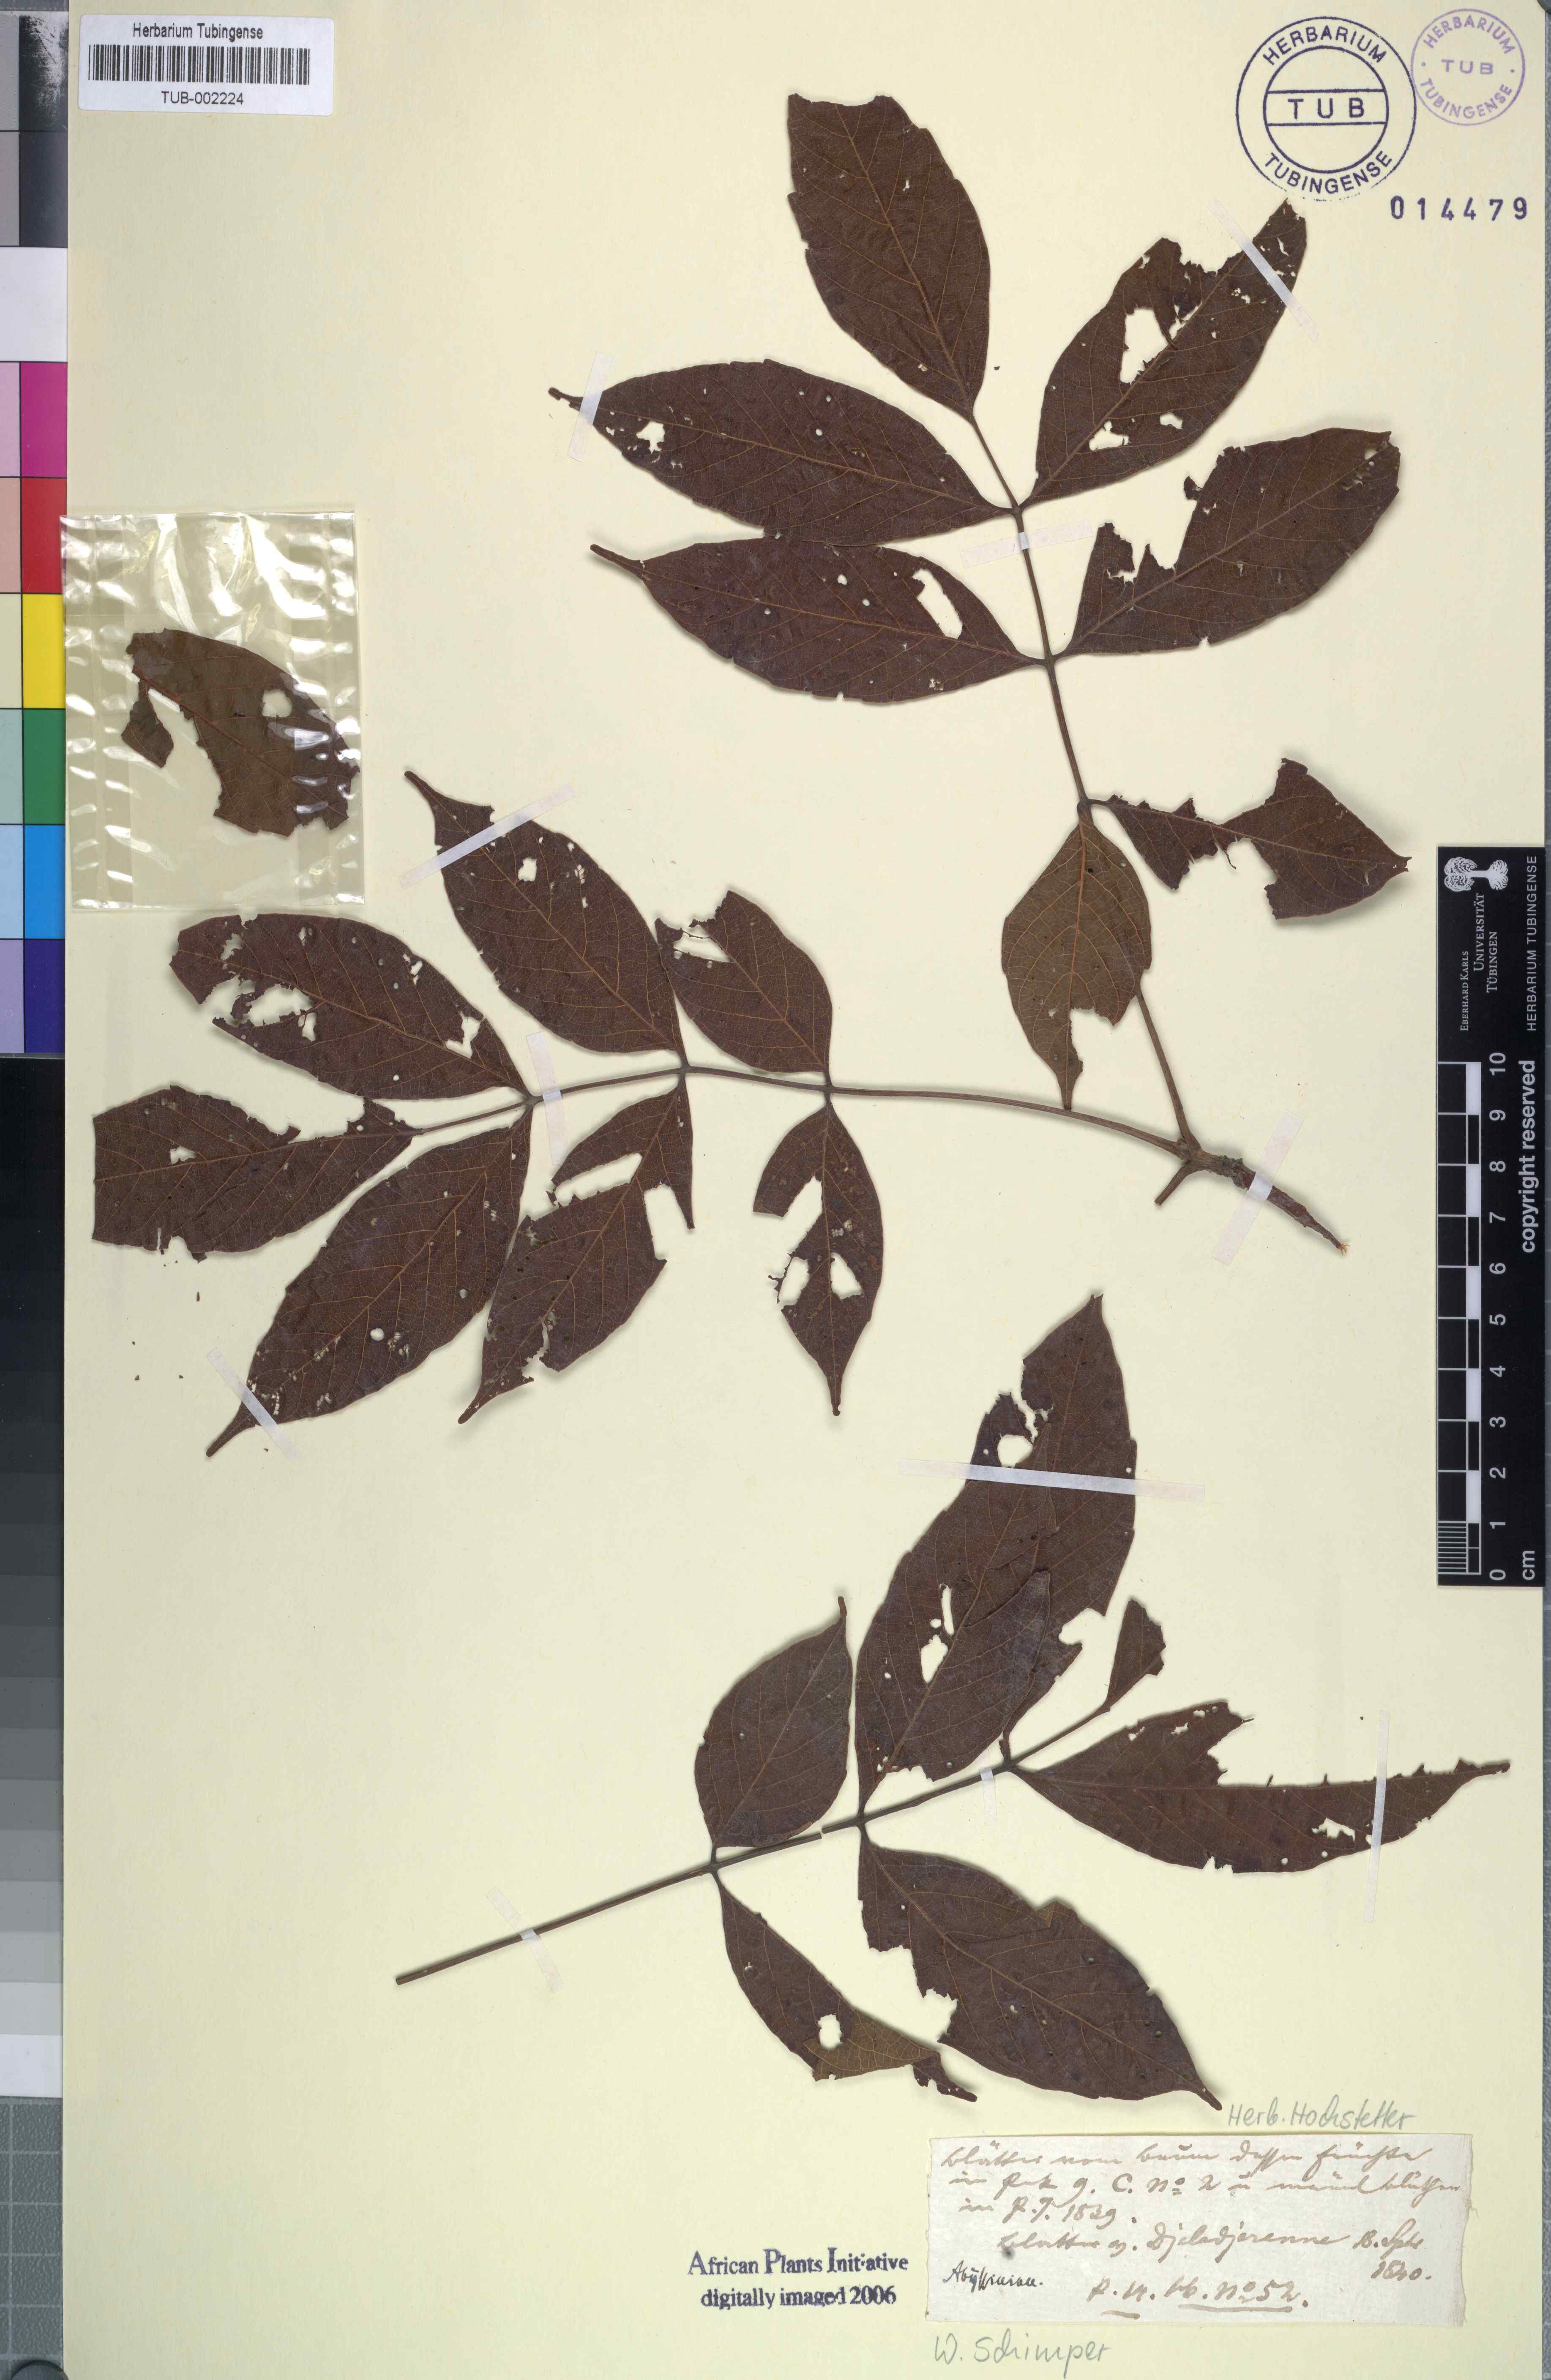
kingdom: Plantae
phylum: Tracheophyta
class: Magnoliopsida
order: Sapindales
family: Anacardiaceae
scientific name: Anacardiaceae
